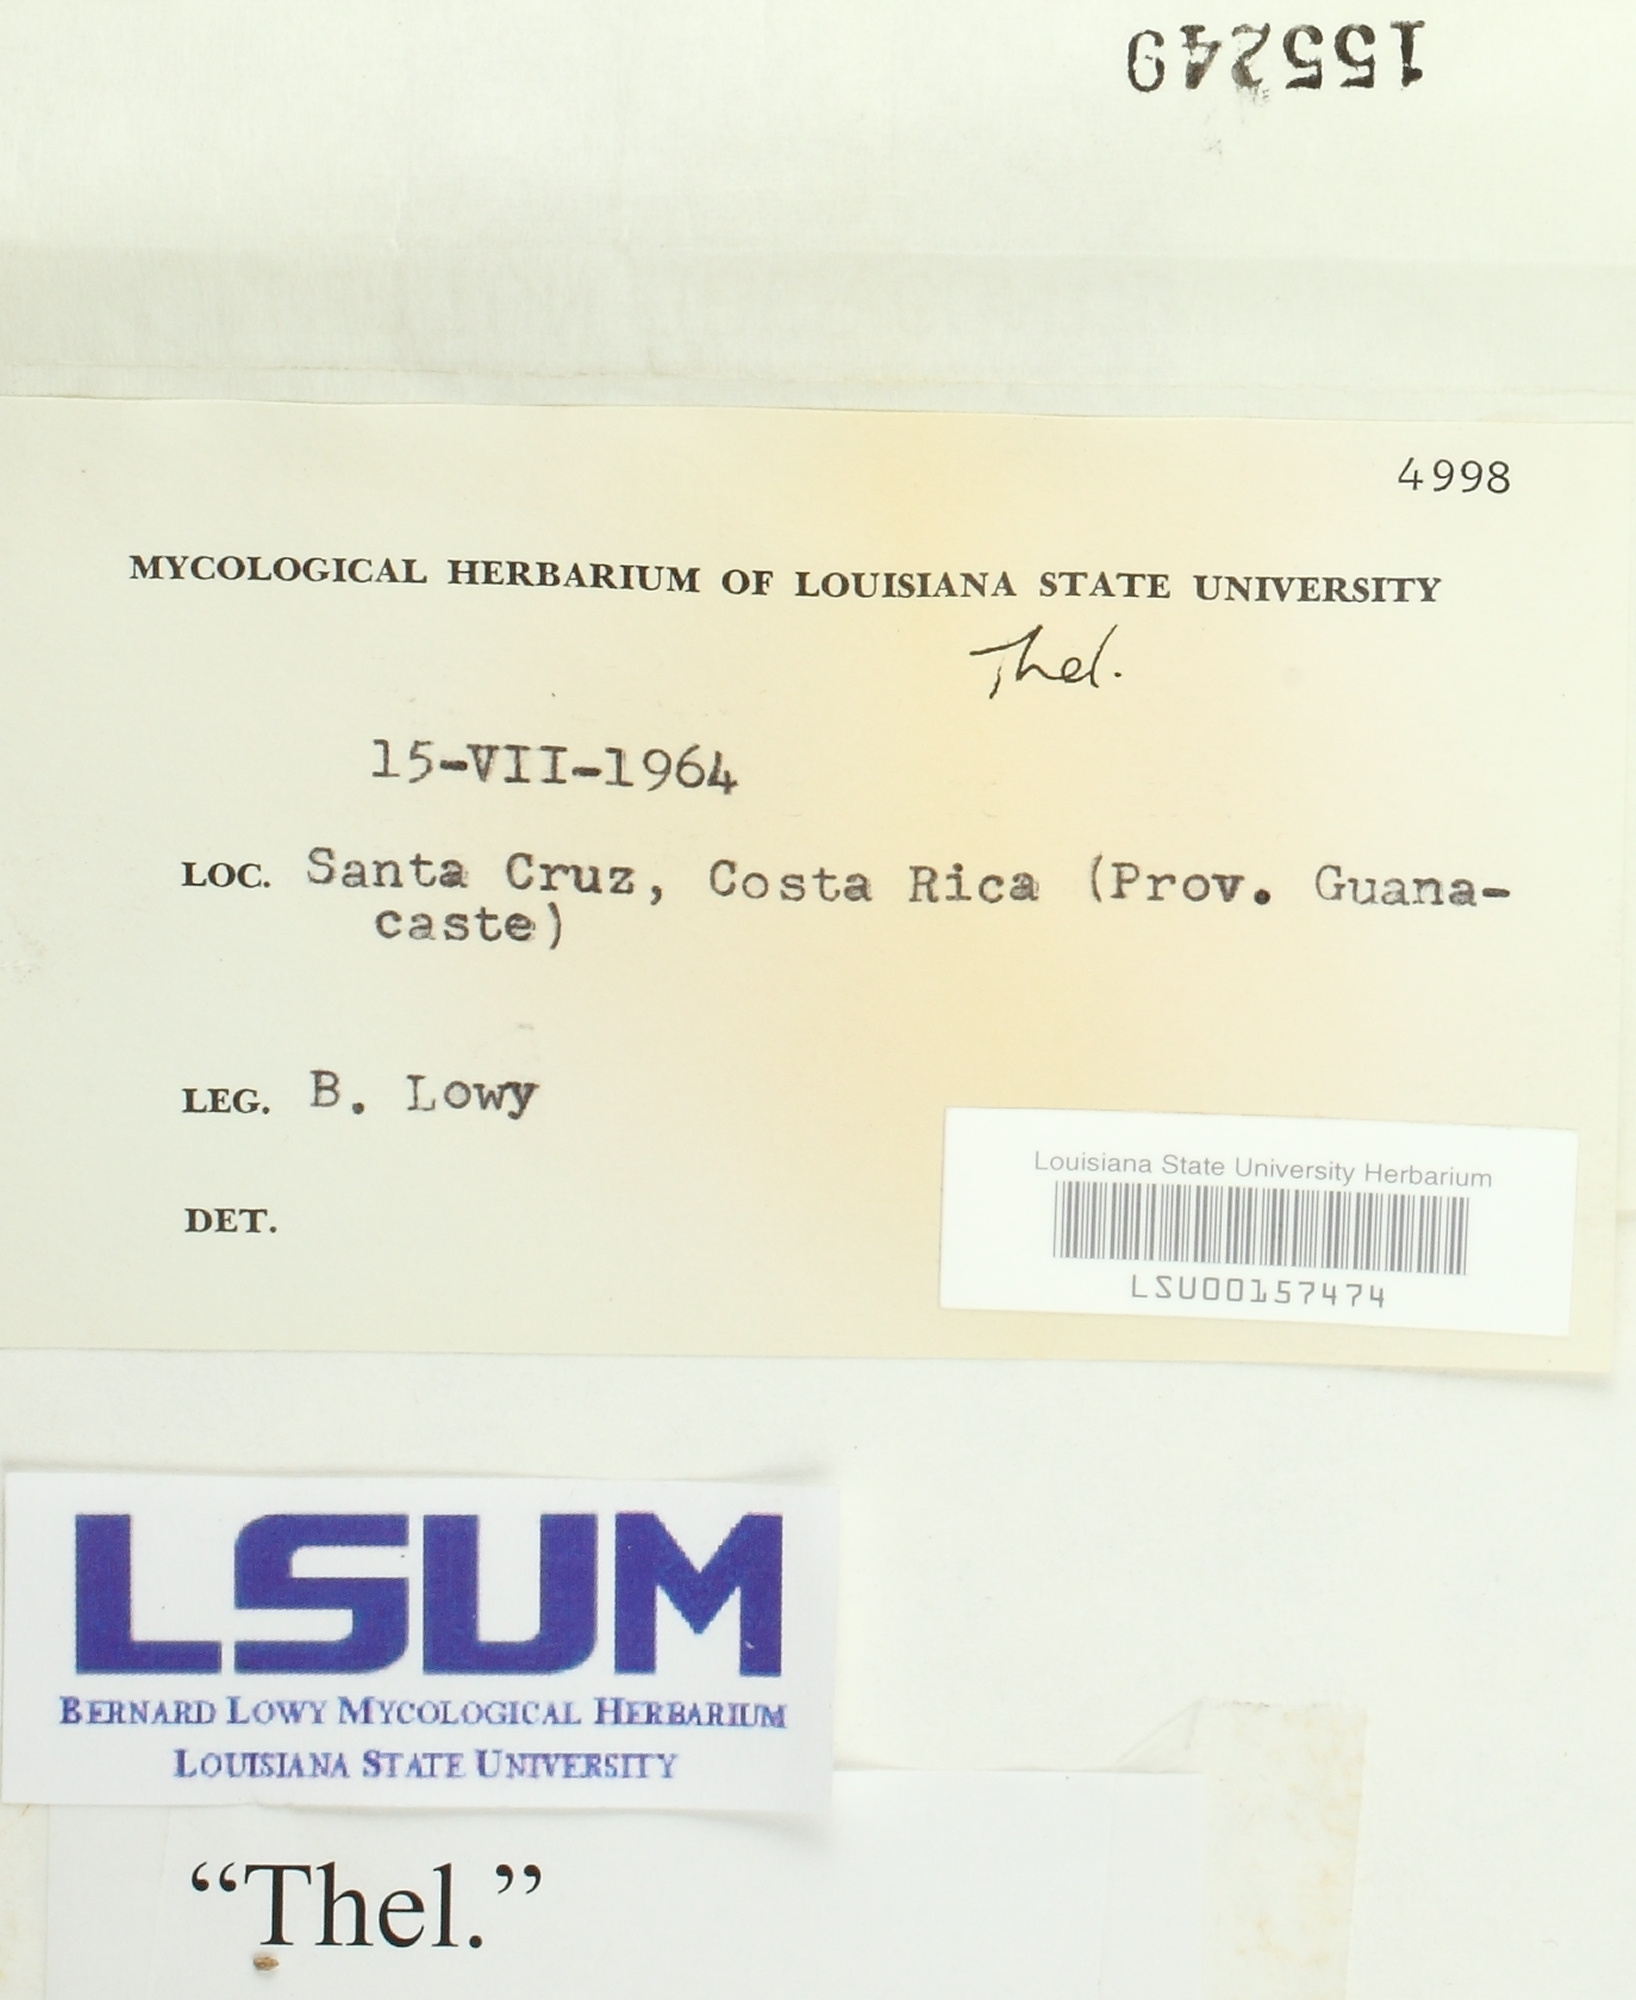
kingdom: Fungi
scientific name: Fungi
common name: Fungi
